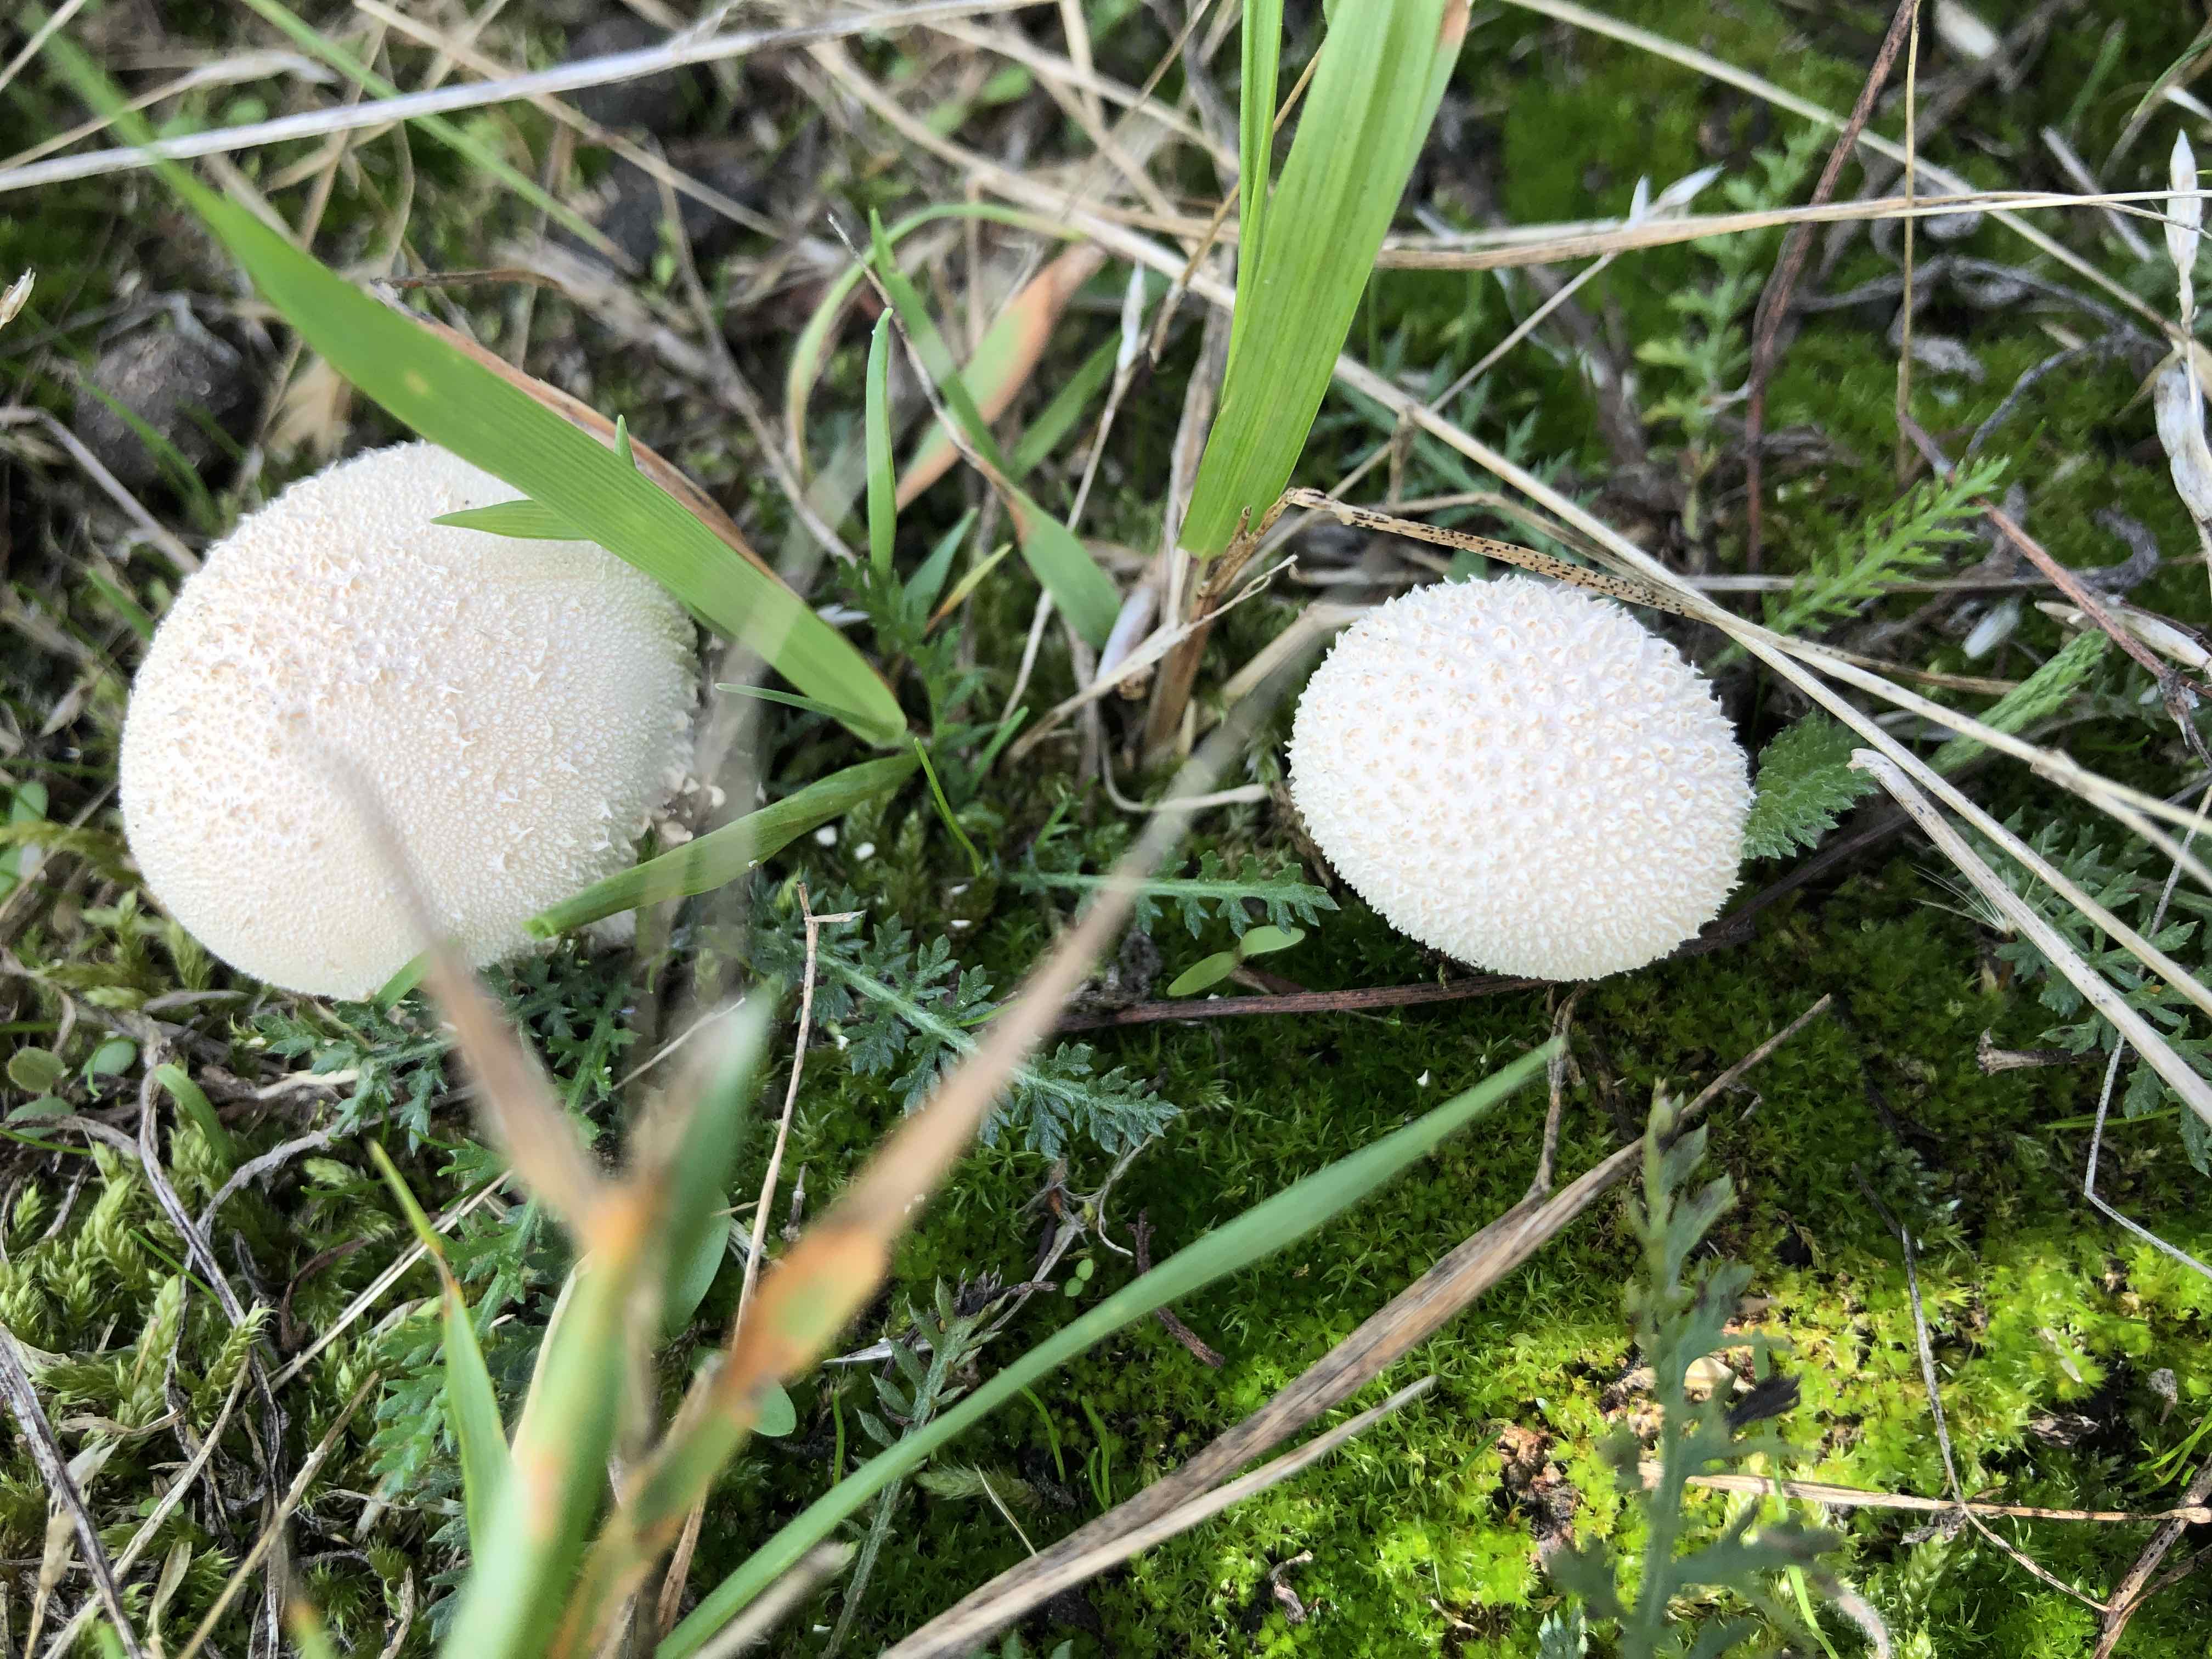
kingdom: Fungi
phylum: Basidiomycota
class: Agaricomycetes
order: Agaricales
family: Agaricaceae
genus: Lycoperdon
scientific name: Lycoperdon
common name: støvbold
